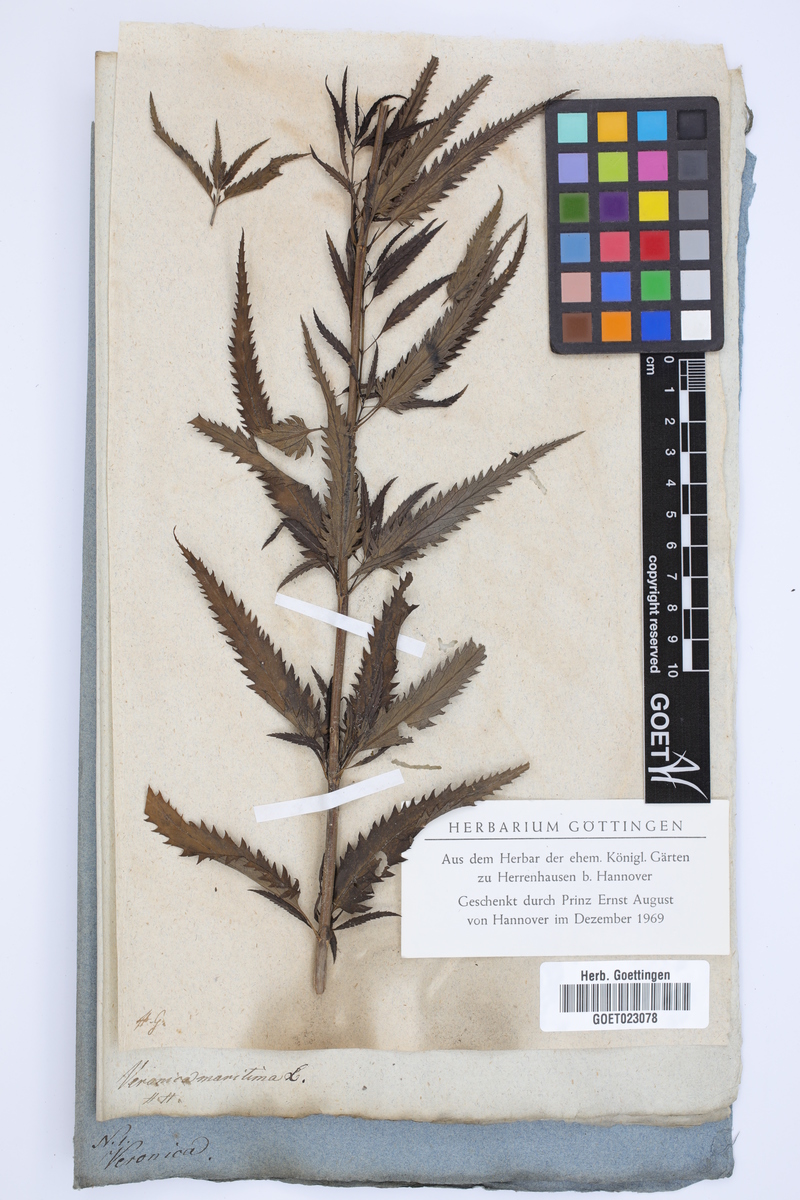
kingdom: Plantae
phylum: Tracheophyta
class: Magnoliopsida
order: Lamiales
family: Plantaginaceae
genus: Veronica
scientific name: Veronica longifolia
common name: Garden speedwell
